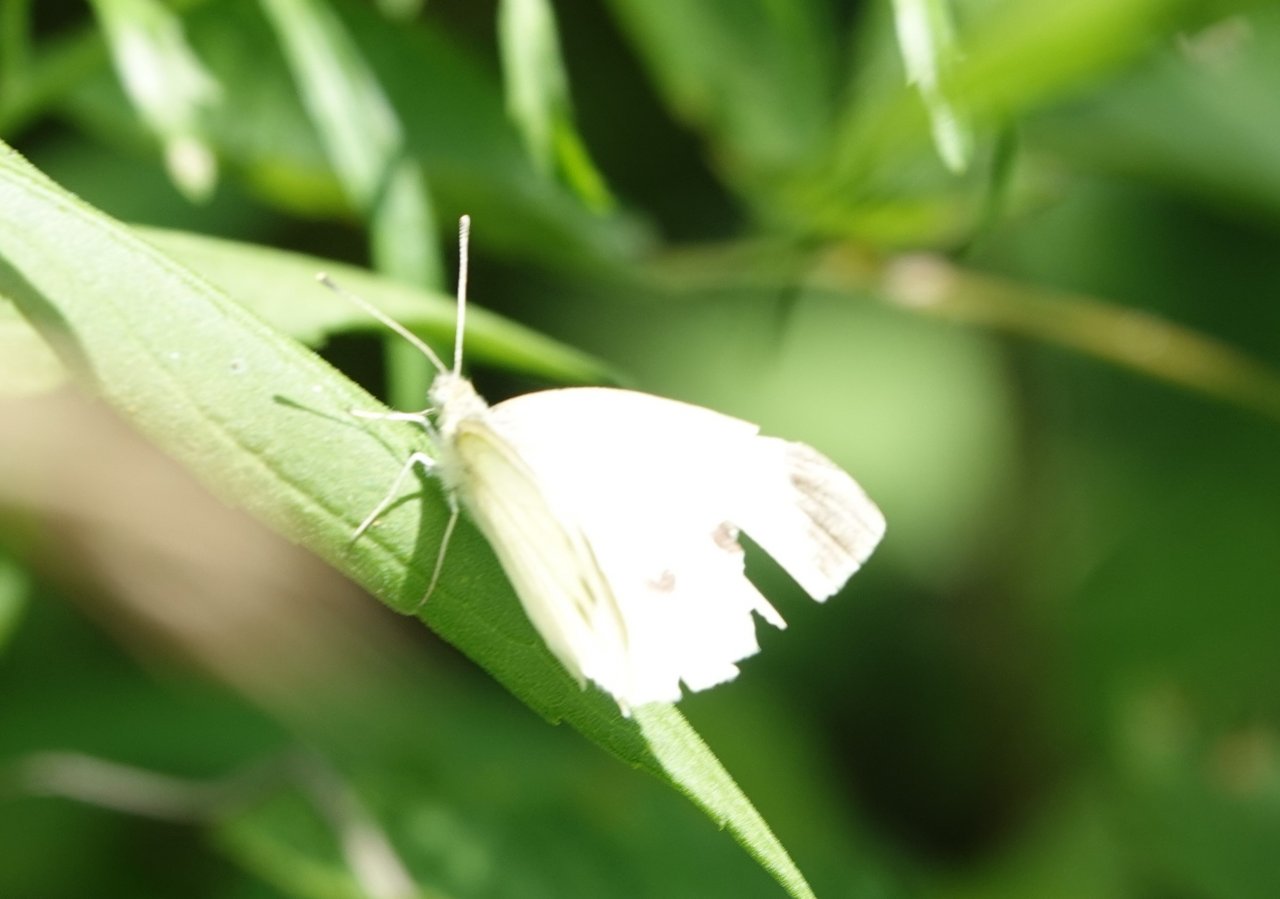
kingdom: Animalia
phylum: Arthropoda
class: Insecta
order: Lepidoptera
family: Pieridae
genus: Pieris
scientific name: Pieris rapae
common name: Cabbage White
